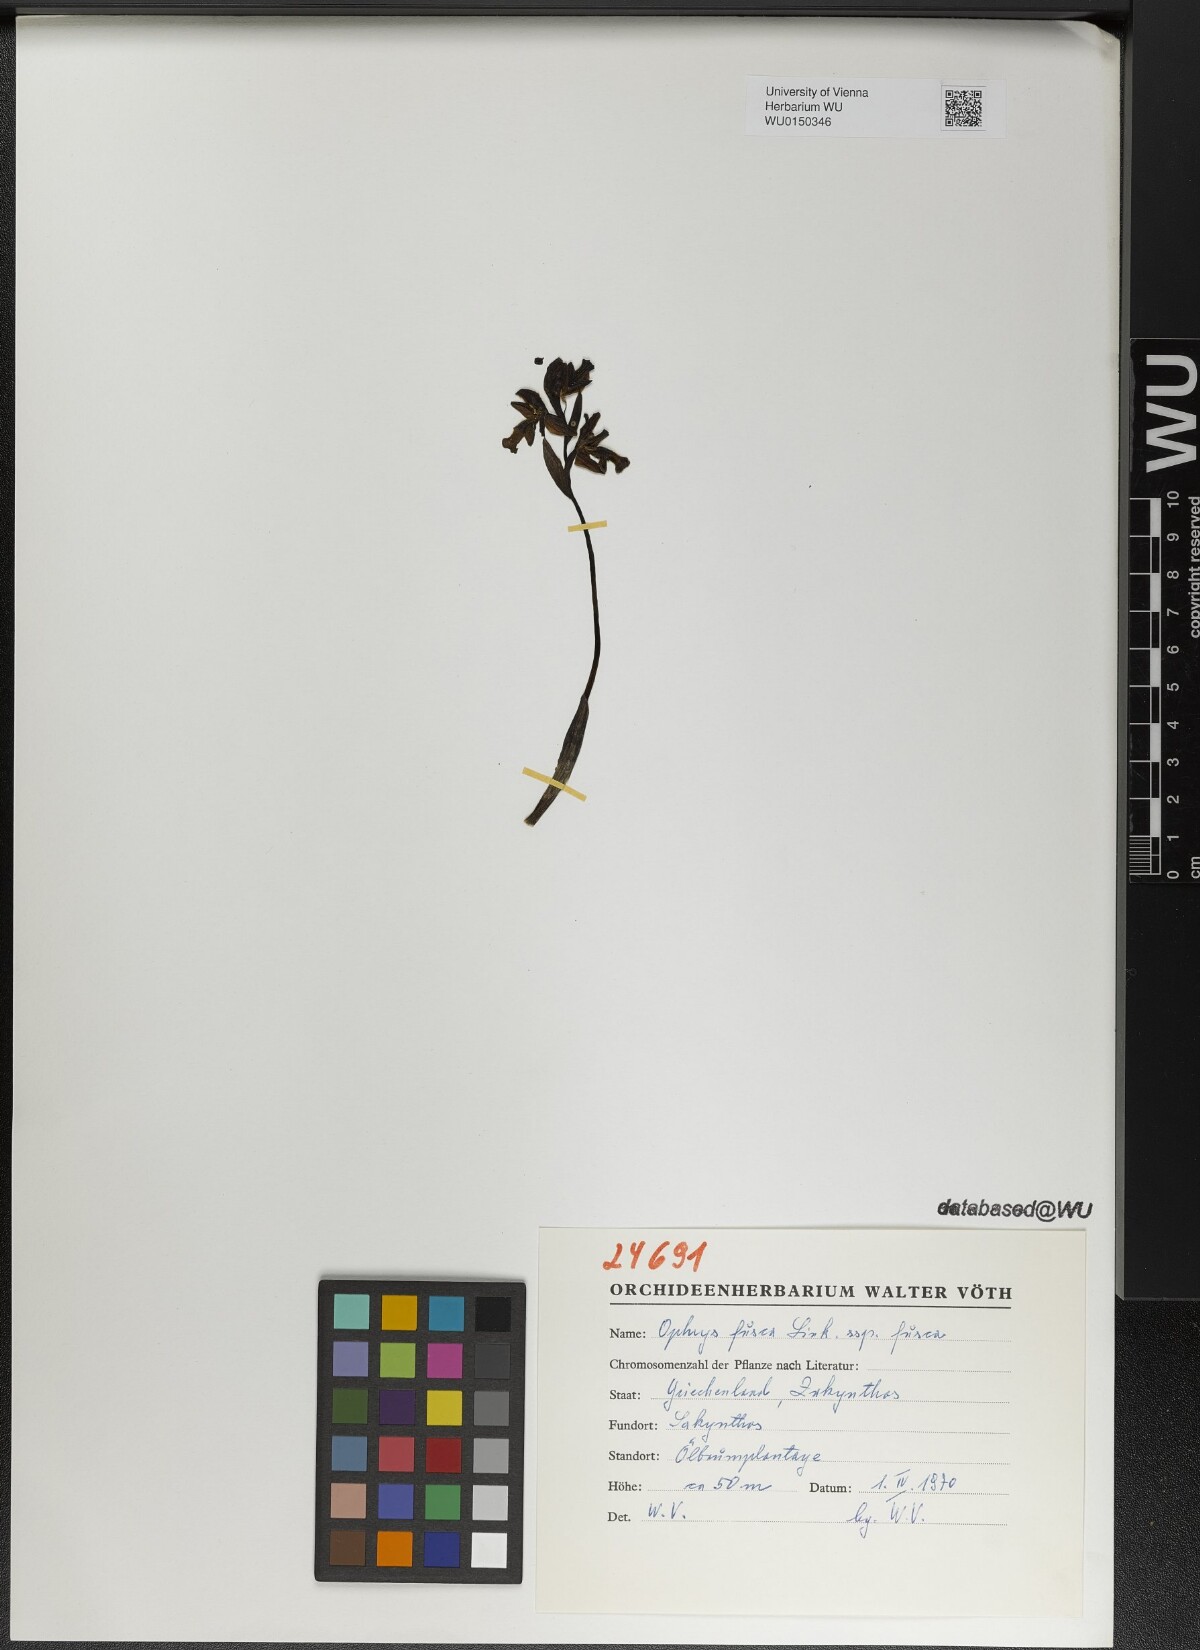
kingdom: Plantae
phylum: Tracheophyta
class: Liliopsida
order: Asparagales
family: Orchidaceae
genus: Ophrys
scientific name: Ophrys fusca
